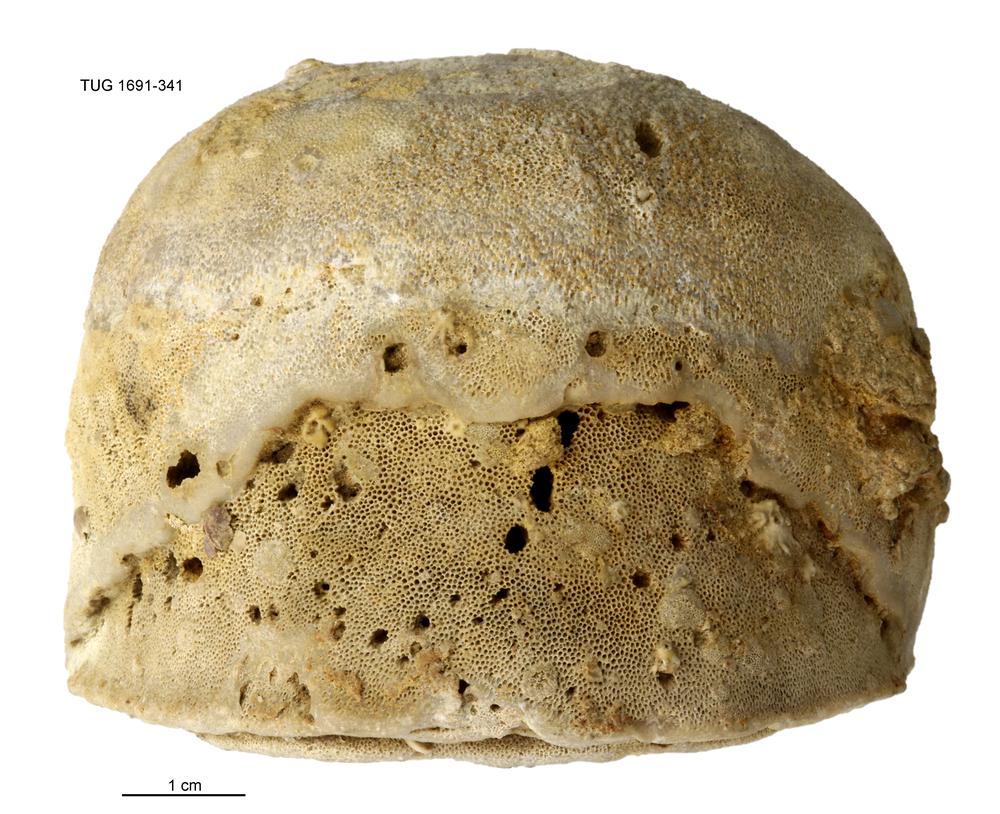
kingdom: Animalia
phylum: Bryozoa
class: Stenolaemata
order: Trepostomatida
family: Diplotrypidae
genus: Diplotrypa
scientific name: Diplotrypa petropolitana
